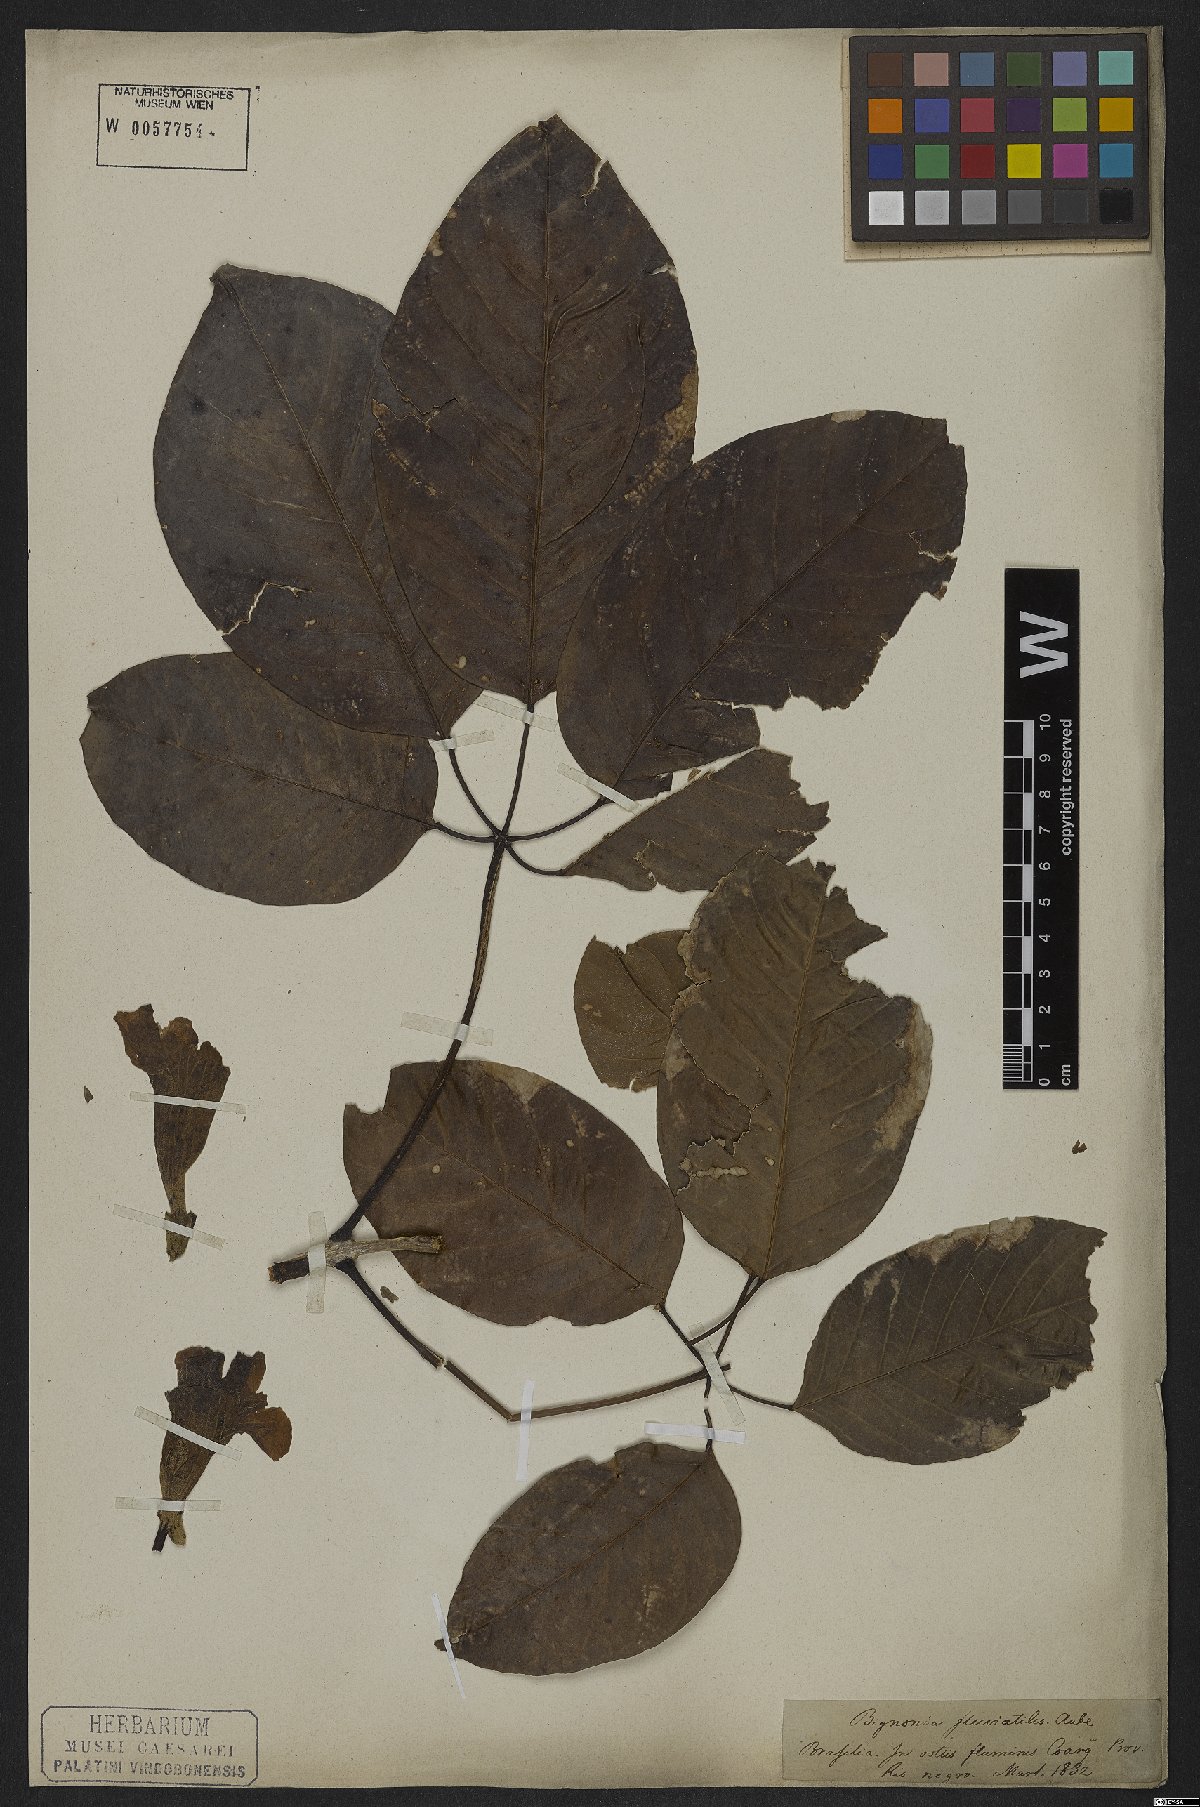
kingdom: Plantae
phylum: Tracheophyta
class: Magnoliopsida
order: Lamiales
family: Bignoniaceae
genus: Tabebuia
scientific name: Tabebuia fluviatilis
